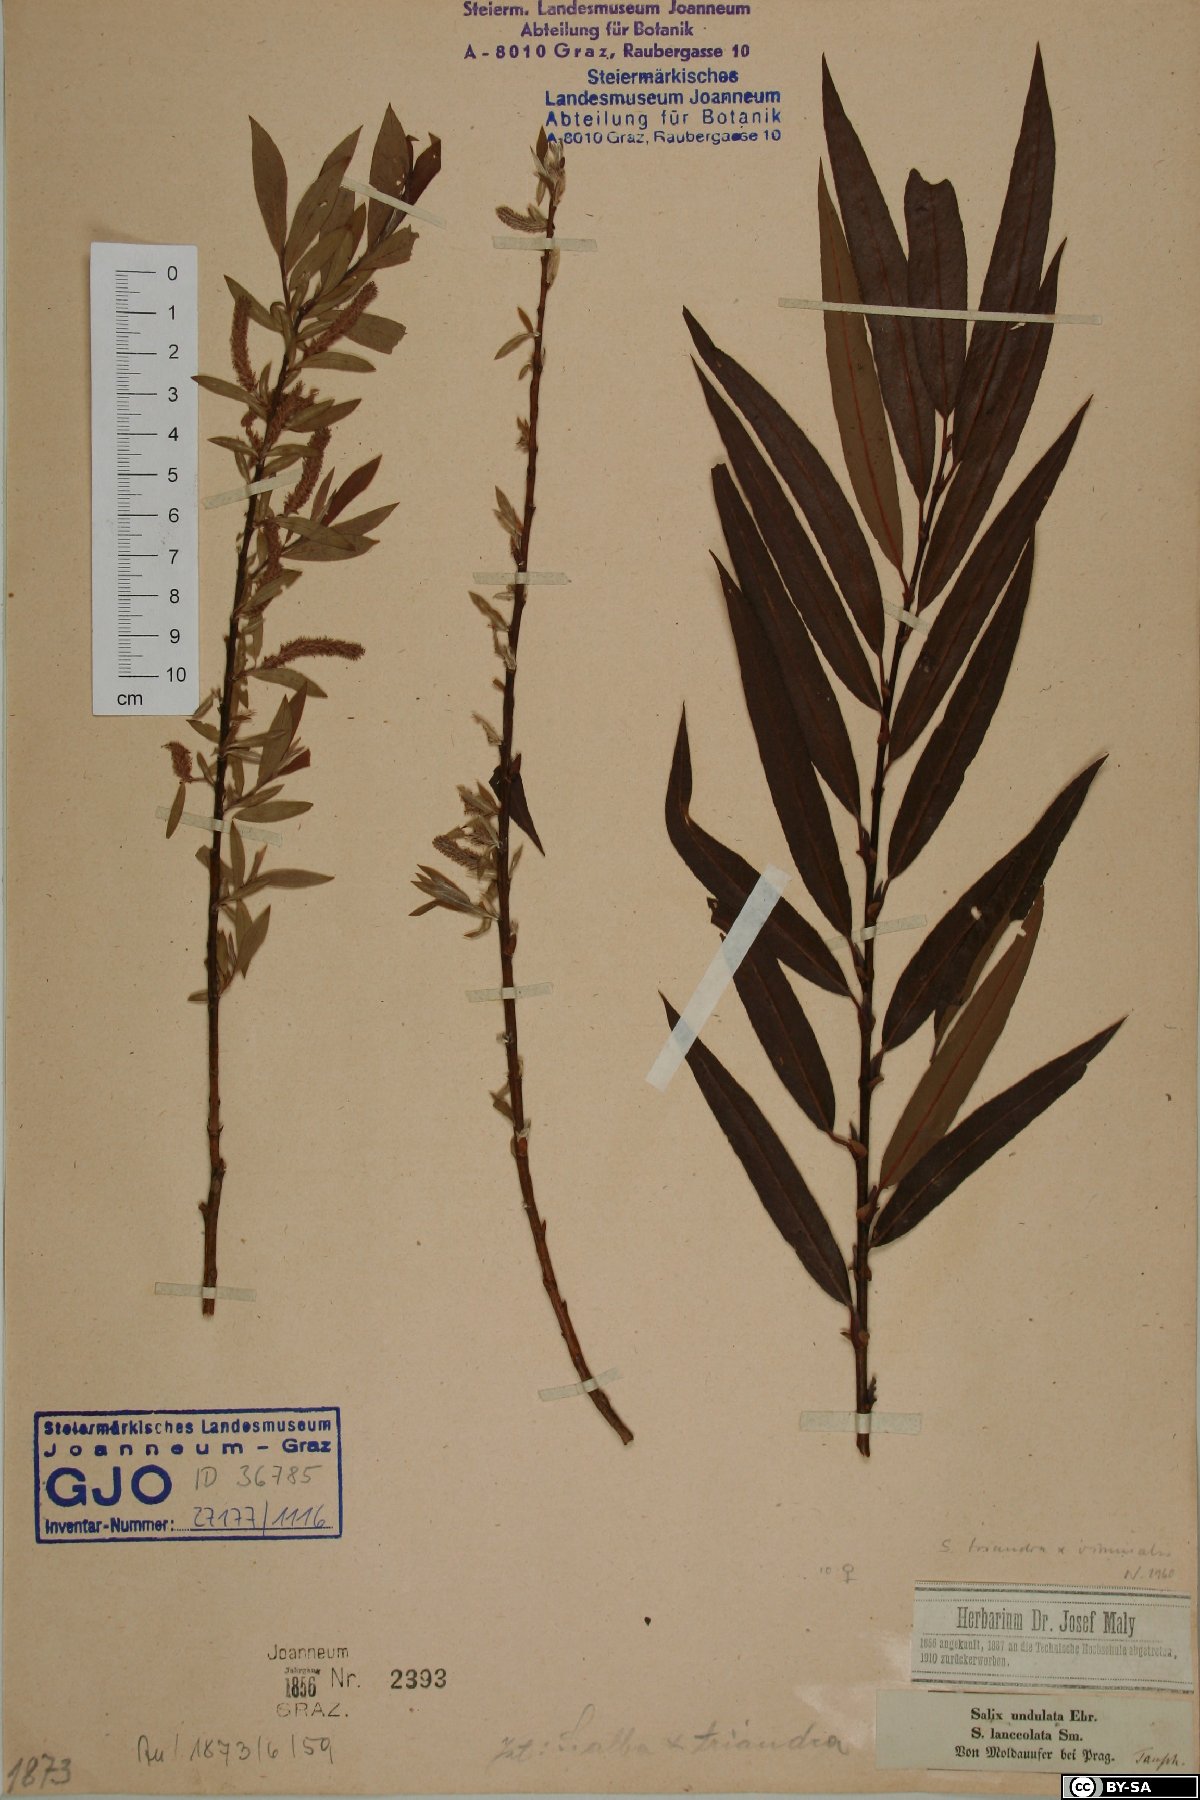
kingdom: Plantae
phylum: Tracheophyta
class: Magnoliopsida
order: Malpighiales
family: Salicaceae
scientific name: Salicaceae
